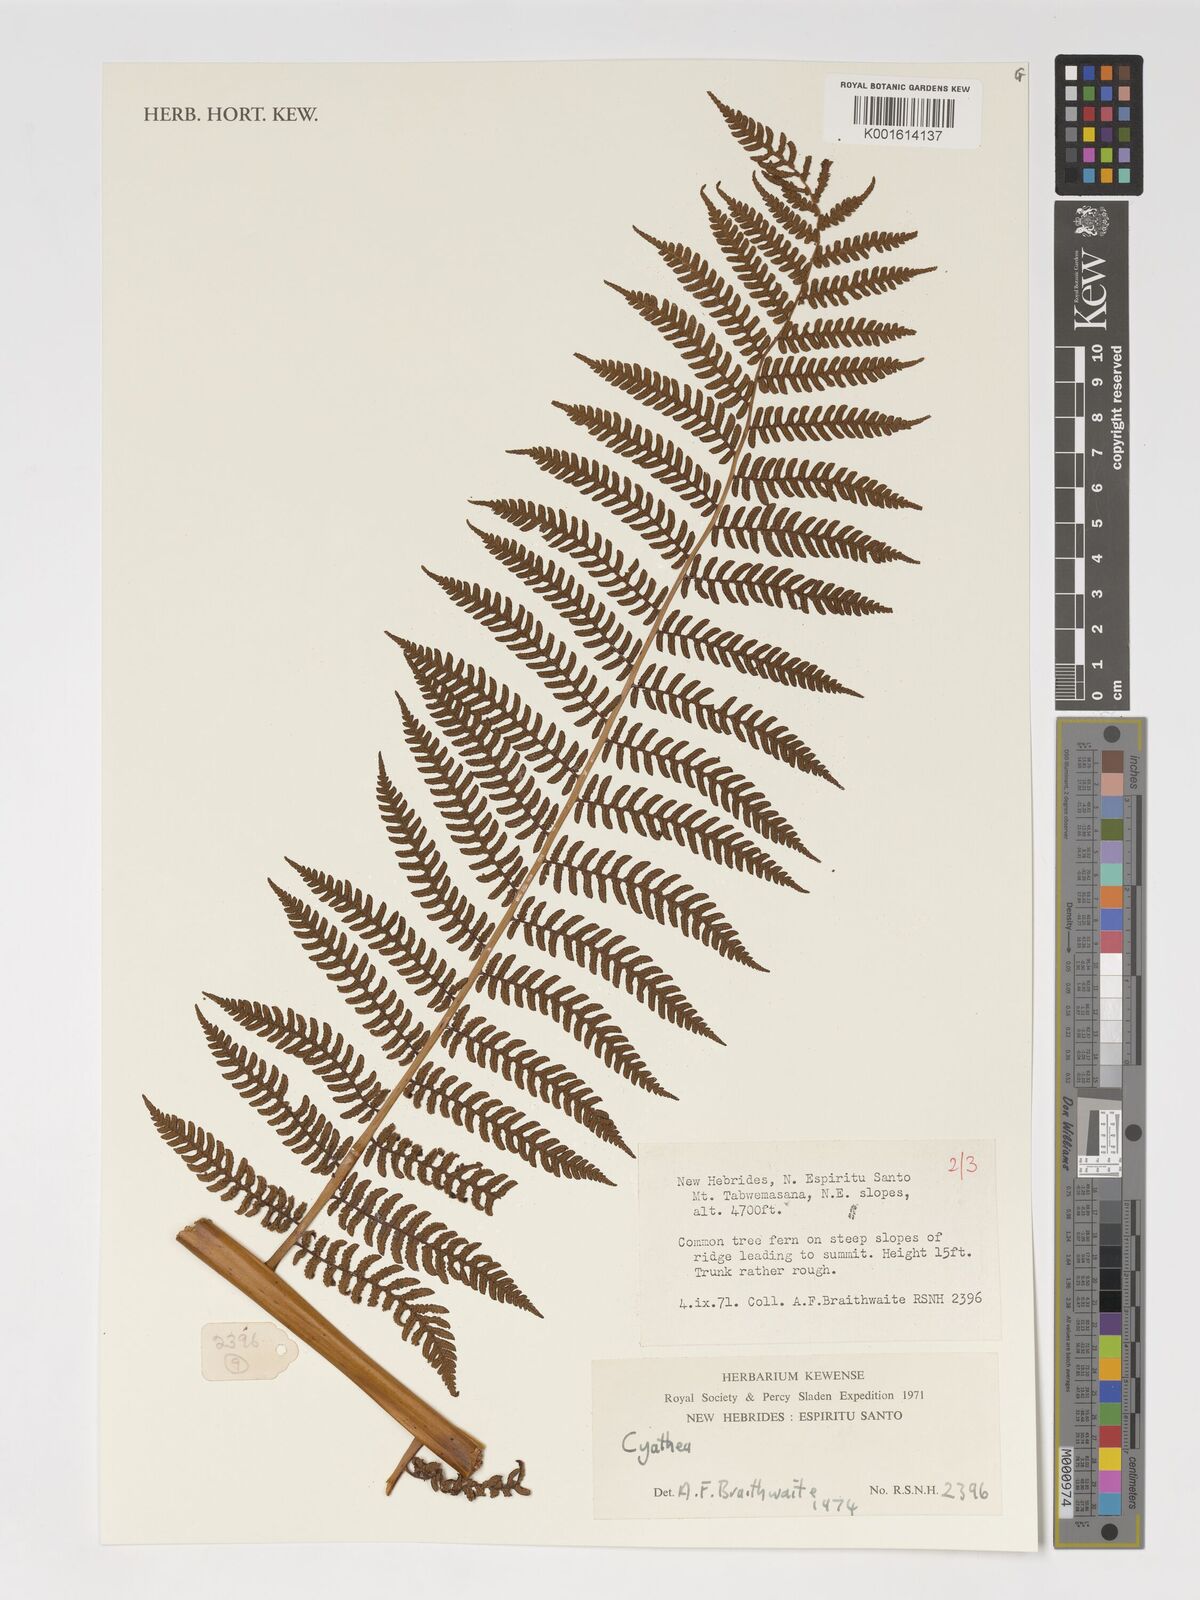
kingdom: Plantae
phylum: Tracheophyta
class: Polypodiopsida
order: Cyatheales
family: Cyatheaceae
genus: Cyathea
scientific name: Cyathea
